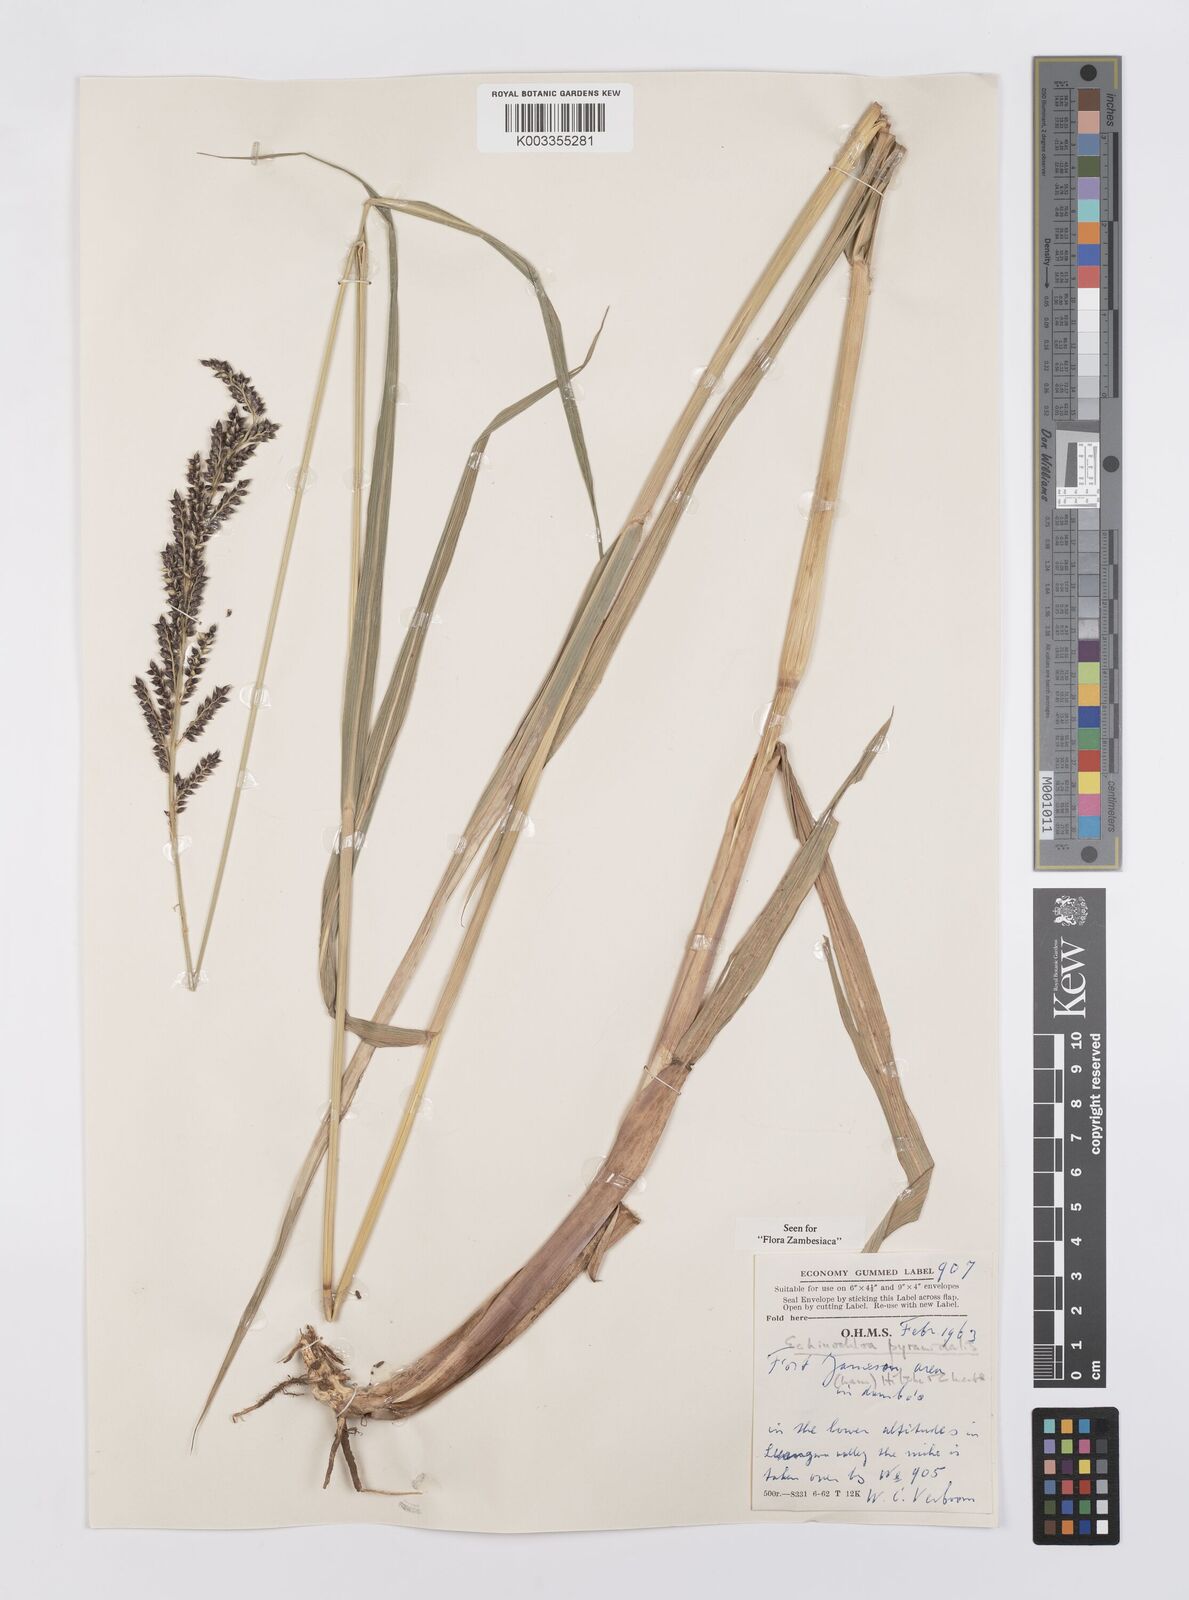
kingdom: Plantae
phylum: Tracheophyta
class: Liliopsida
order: Poales
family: Poaceae
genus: Echinochloa
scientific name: Echinochloa pyramidalis
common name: Antelope grass
